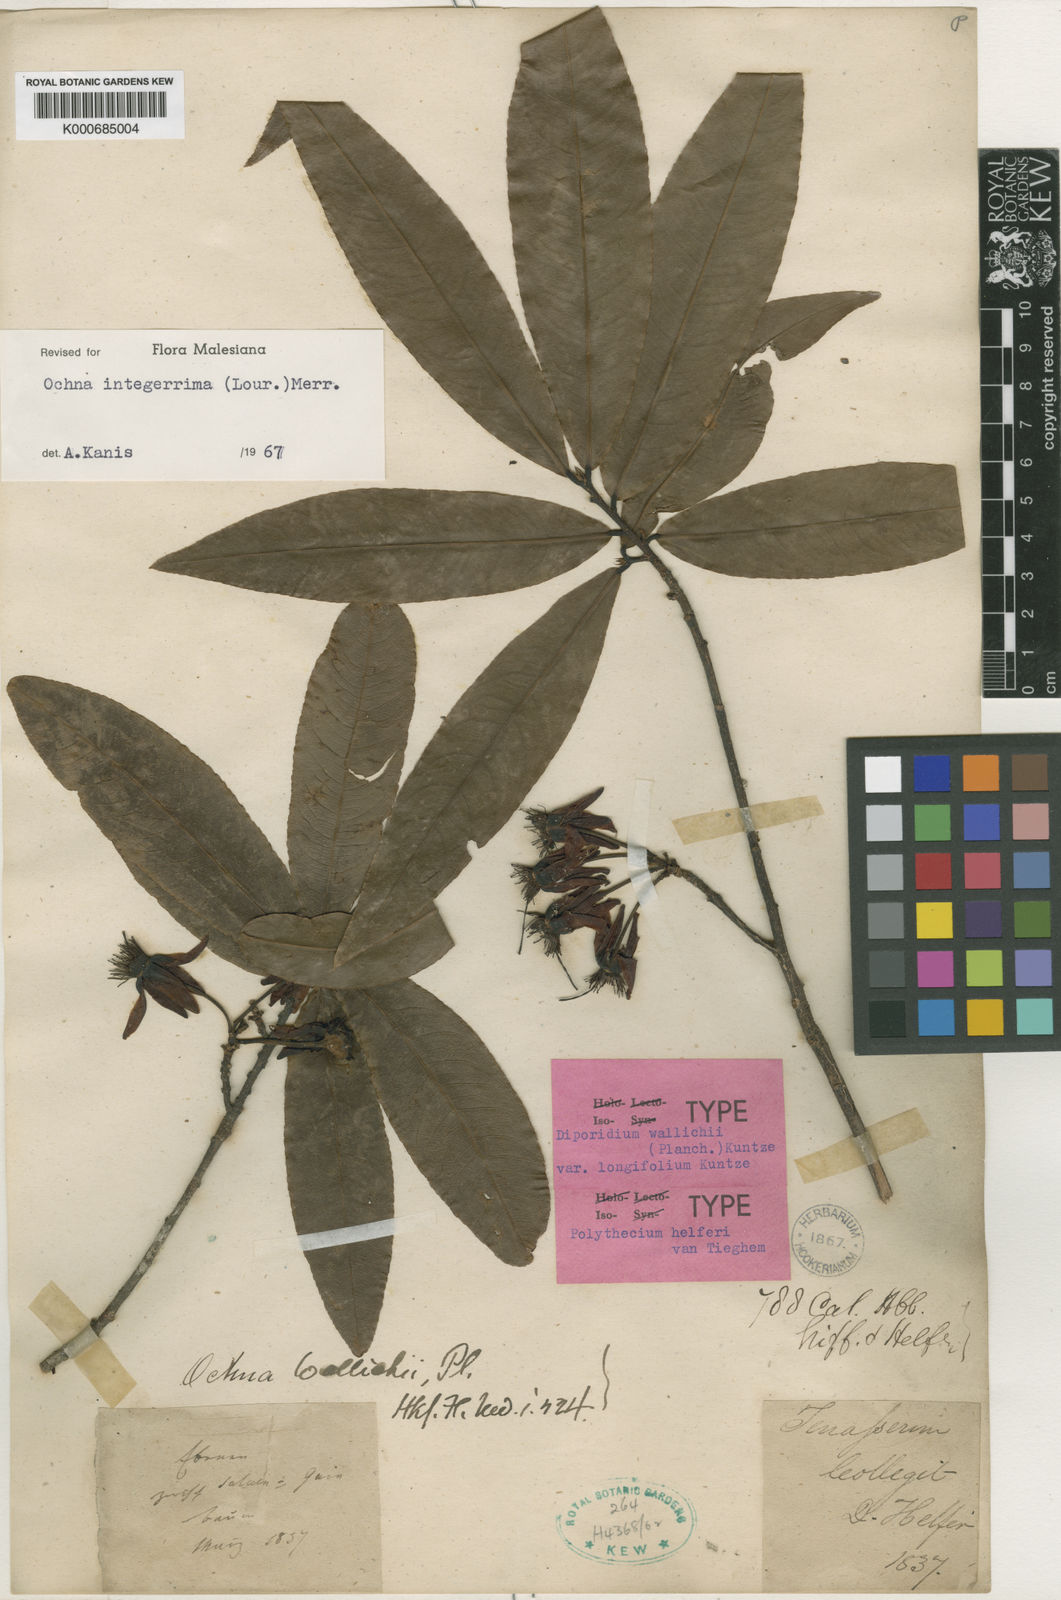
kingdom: Plantae
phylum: Tracheophyta
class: Magnoliopsida
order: Malpighiales
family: Ochnaceae
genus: Ochna
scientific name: Ochna integerrima
